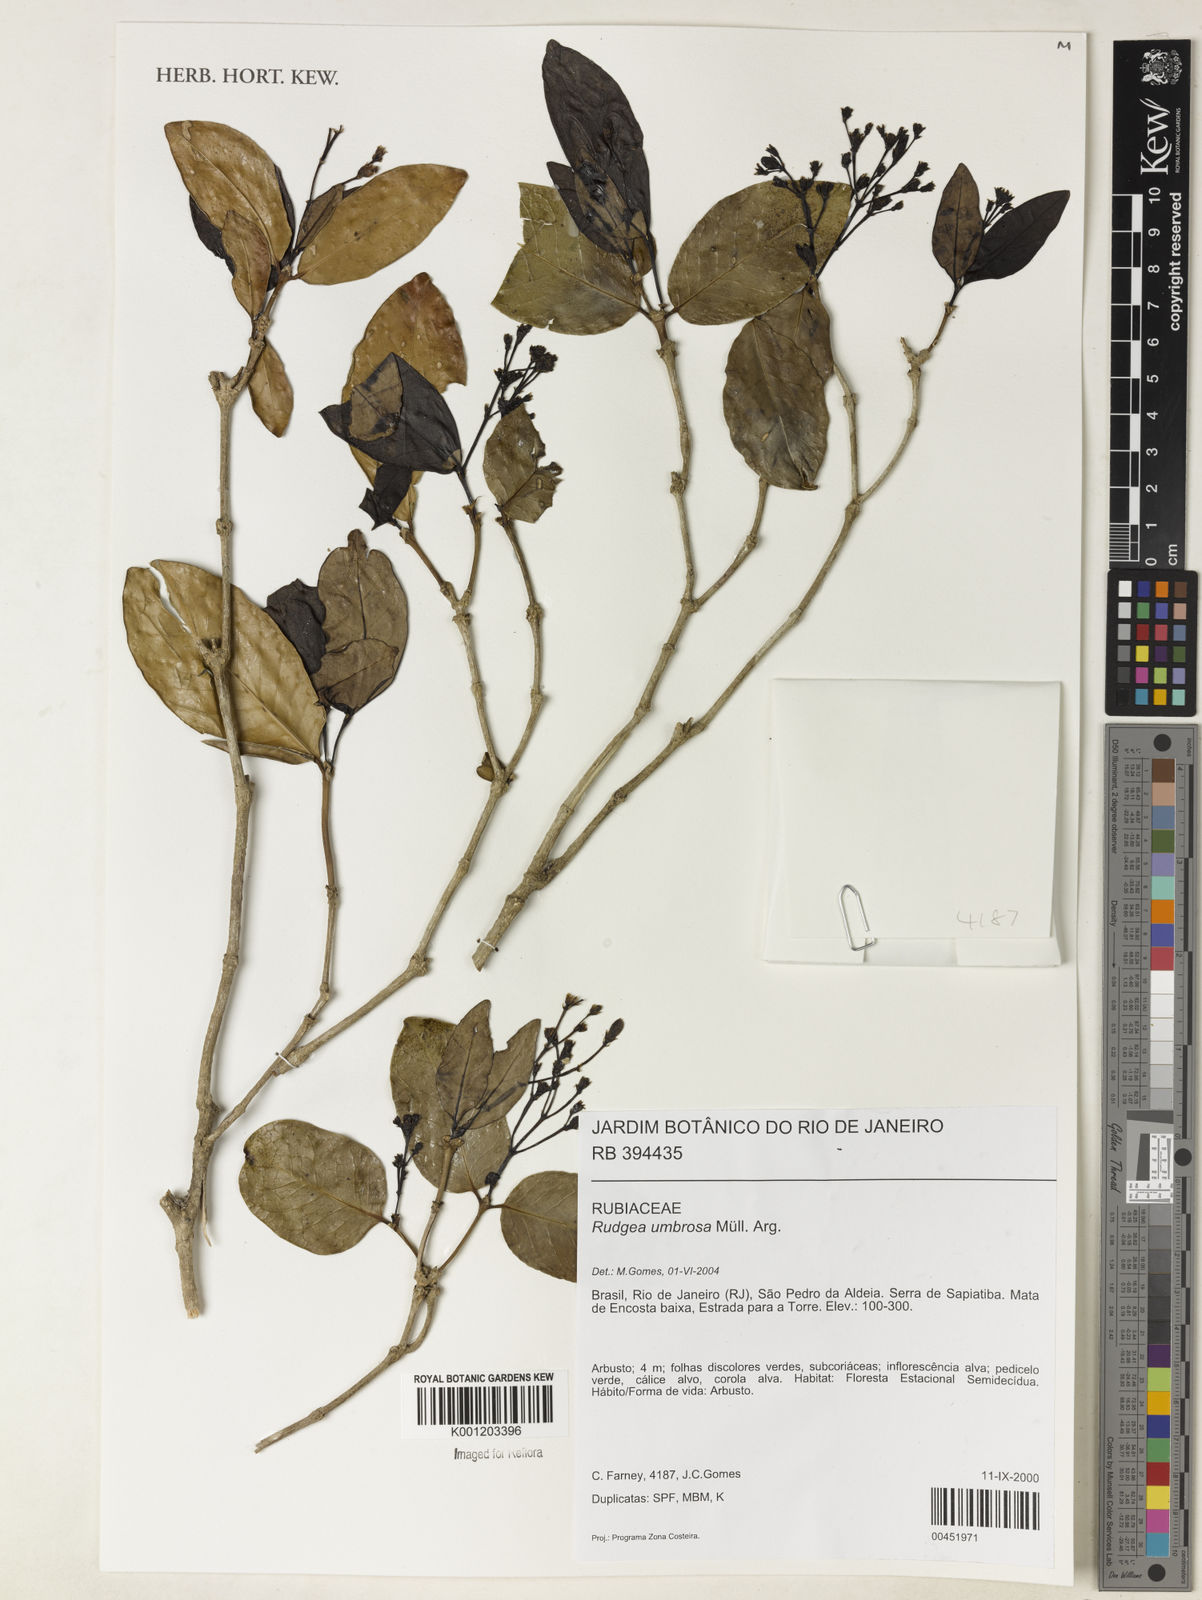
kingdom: Plantae
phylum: Tracheophyta
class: Magnoliopsida
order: Gentianales
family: Rubiaceae
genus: Rudgea
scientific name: Rudgea
